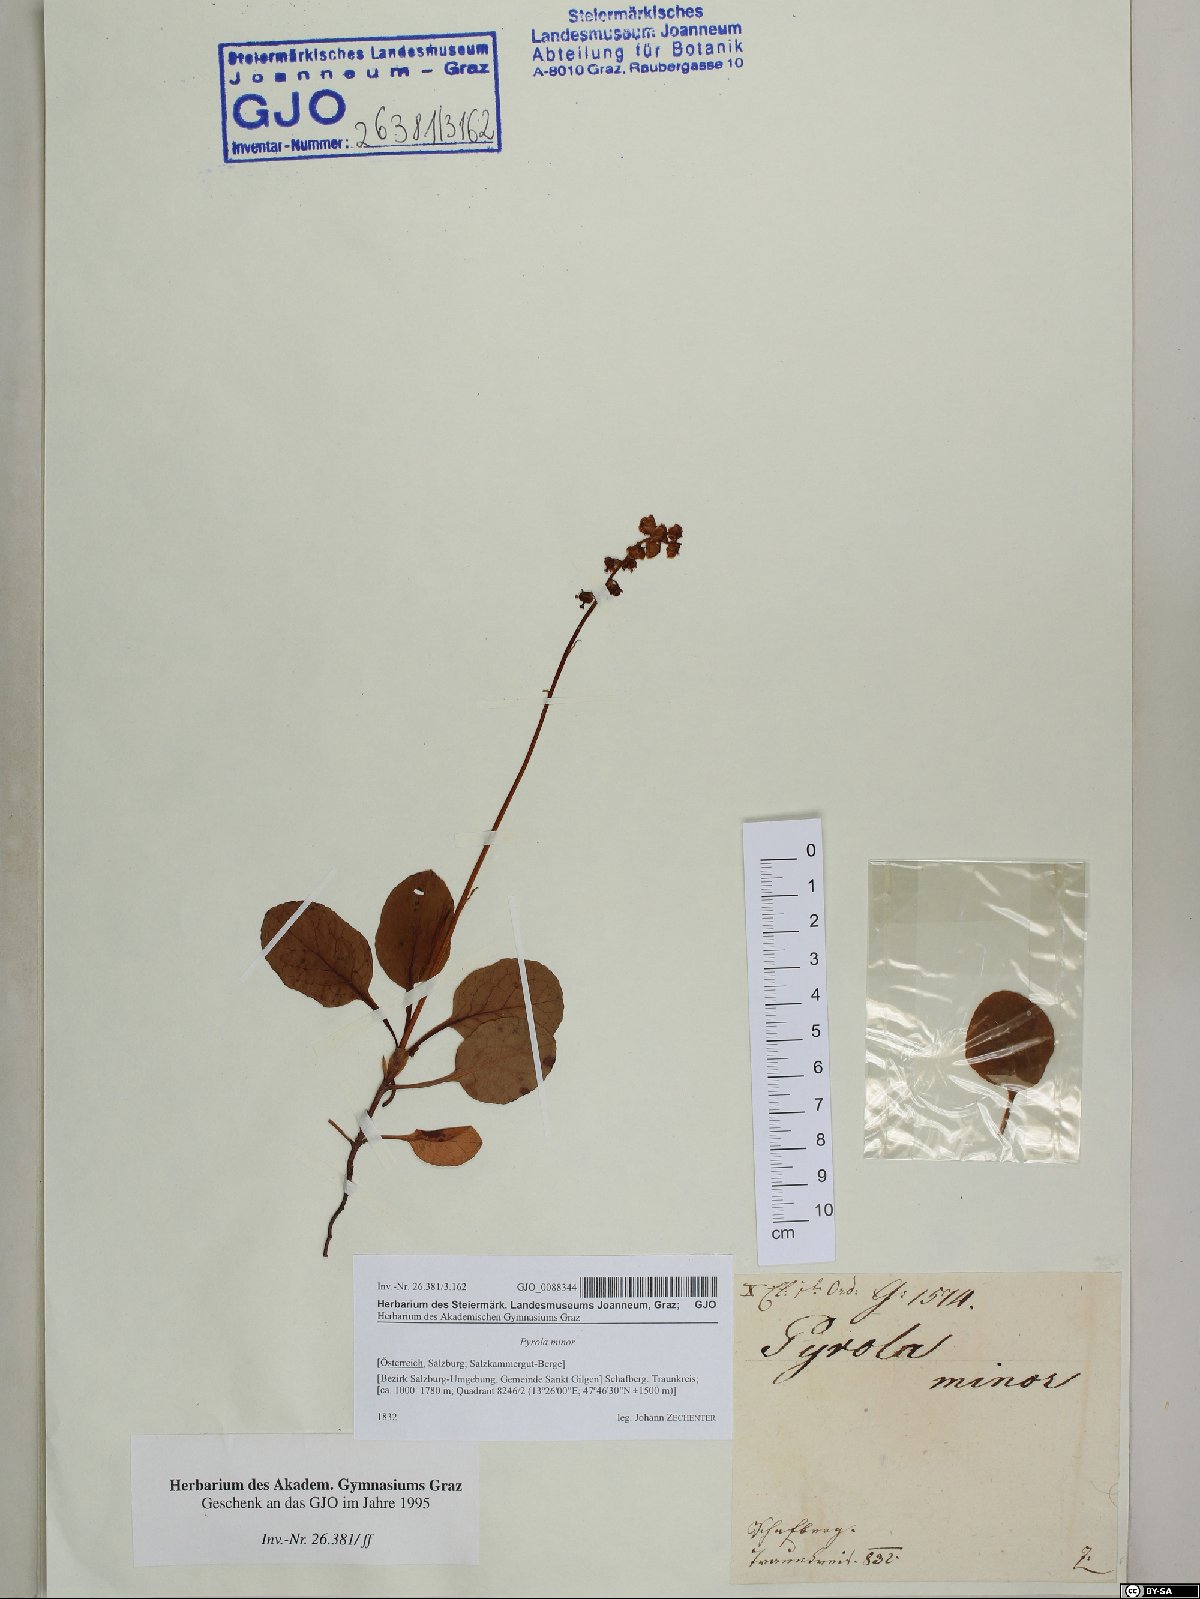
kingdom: Plantae
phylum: Tracheophyta
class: Magnoliopsida
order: Ericales
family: Ericaceae
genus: Pyrola
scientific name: Pyrola minor
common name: Common wintergreen
